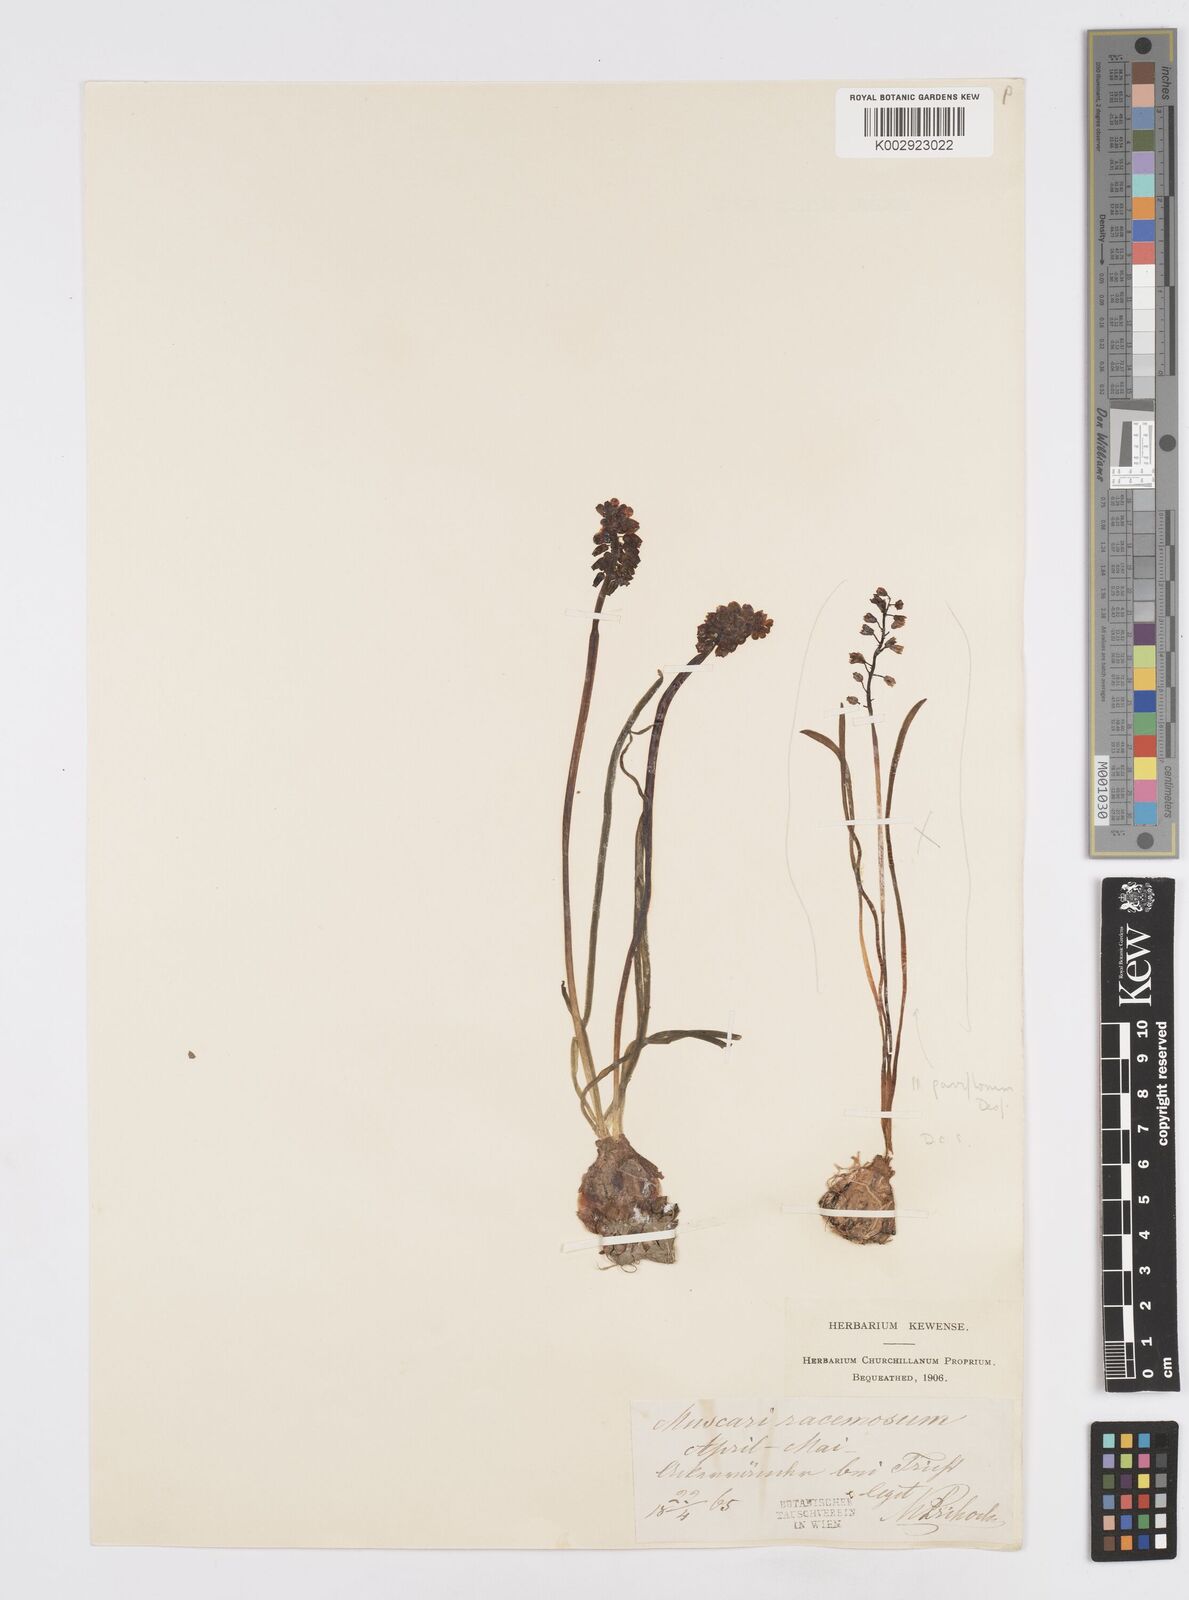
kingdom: Plantae
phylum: Tracheophyta
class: Liliopsida
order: Asparagales
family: Asparagaceae
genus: Muscarimia
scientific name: Muscarimia muscari
